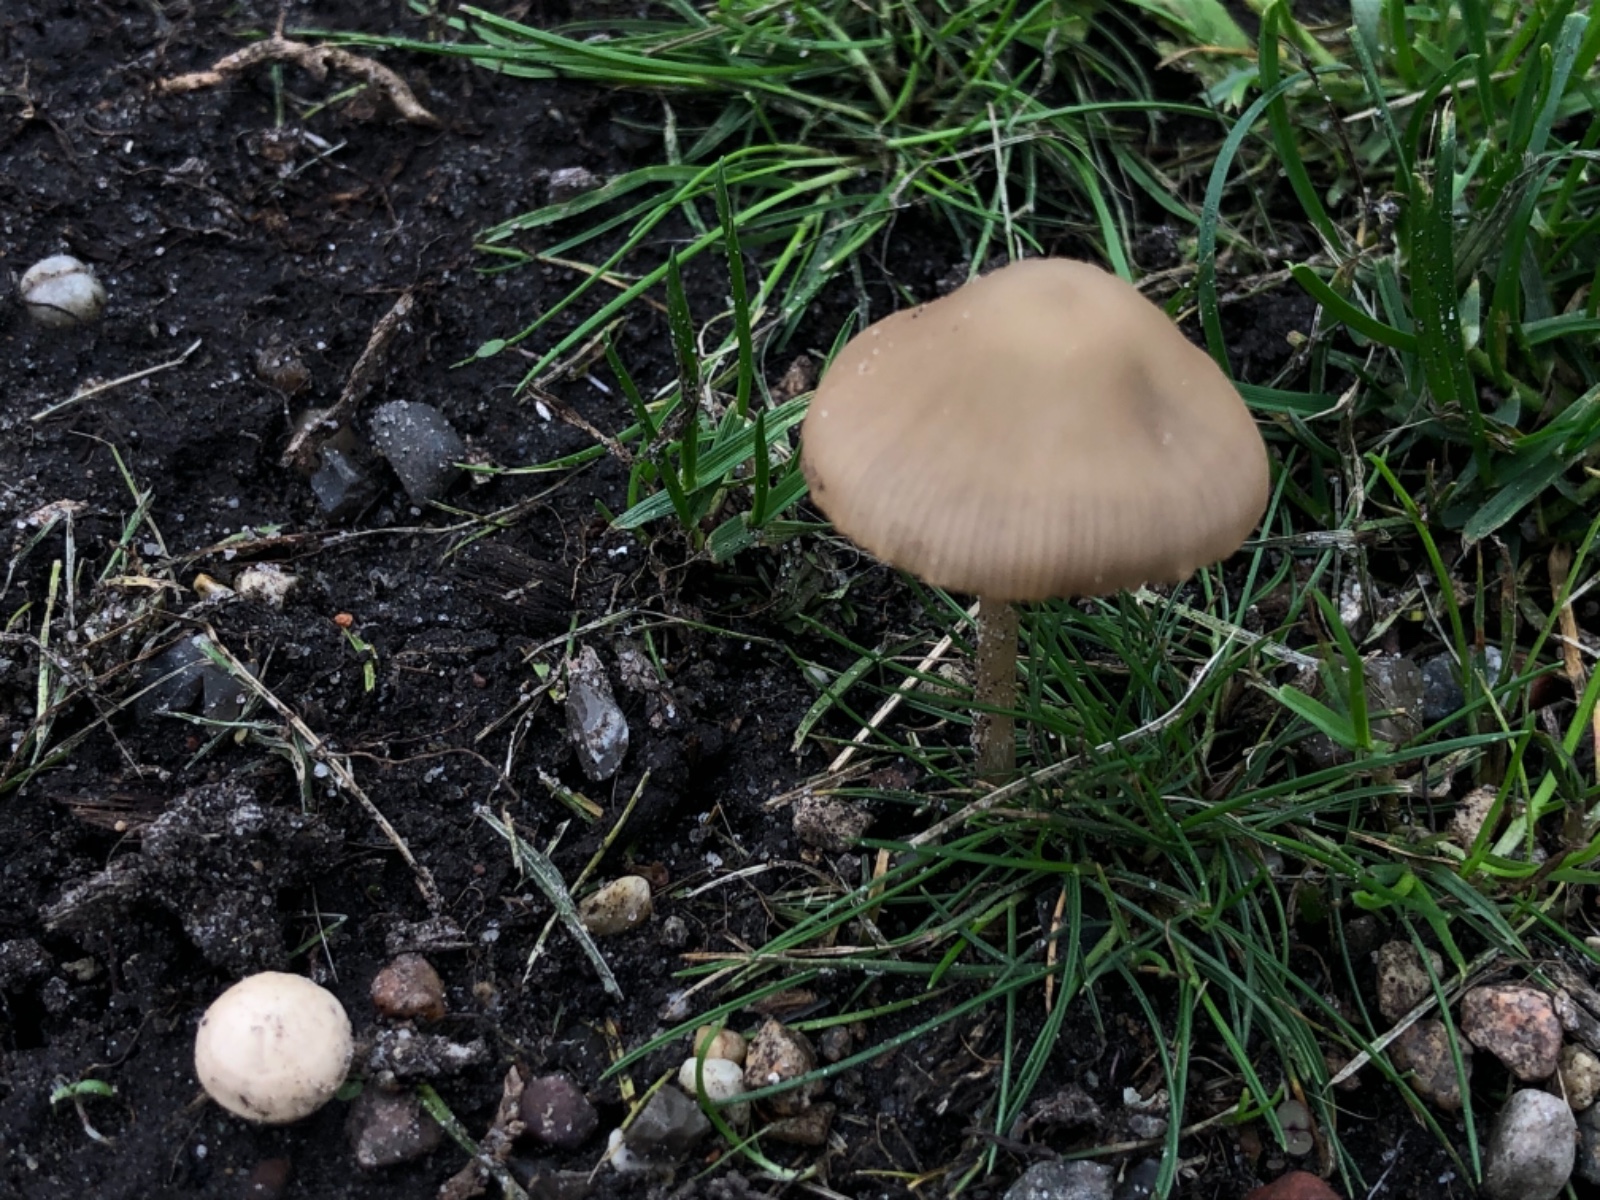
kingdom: Fungi
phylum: Basidiomycota
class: Agaricomycetes
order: Agaricales
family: Psathyrellaceae
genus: Psathyrella
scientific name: Psathyrella
